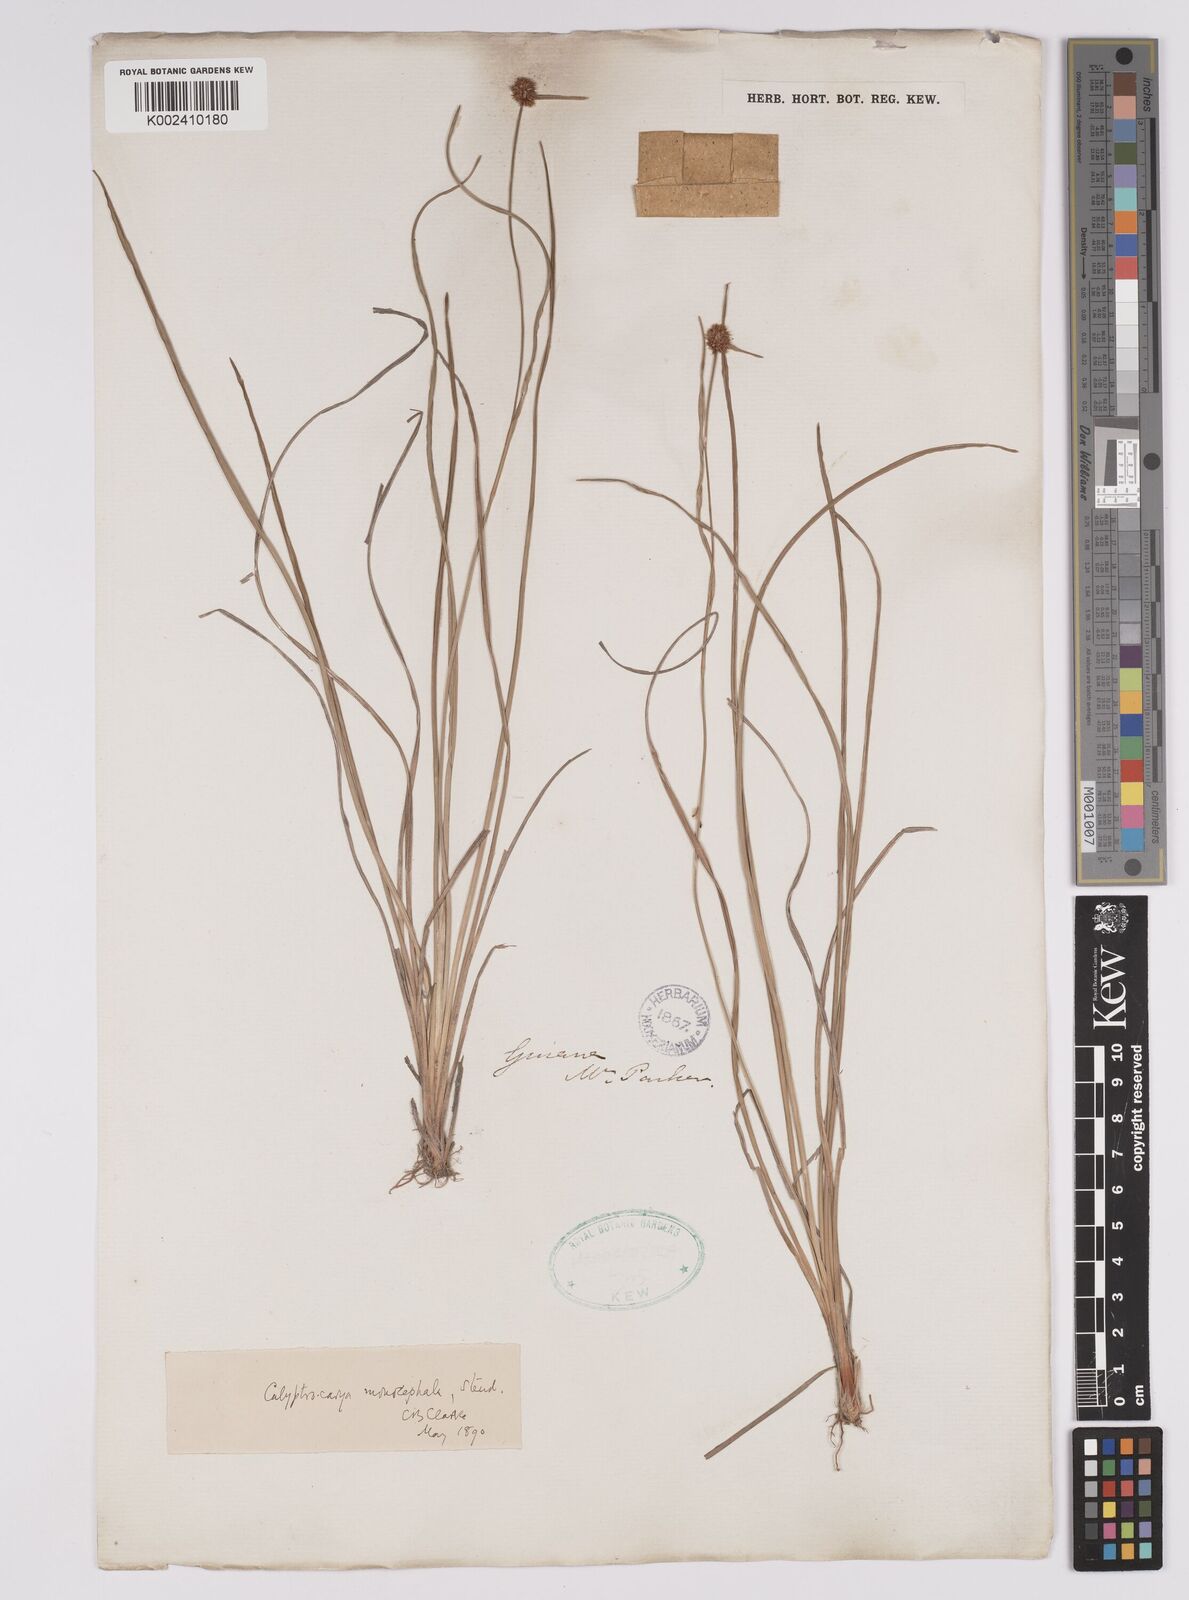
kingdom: Plantae
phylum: Tracheophyta
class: Liliopsida
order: Poales
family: Cyperaceae
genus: Calyptrocarya
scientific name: Calyptrocarya glomerulata
